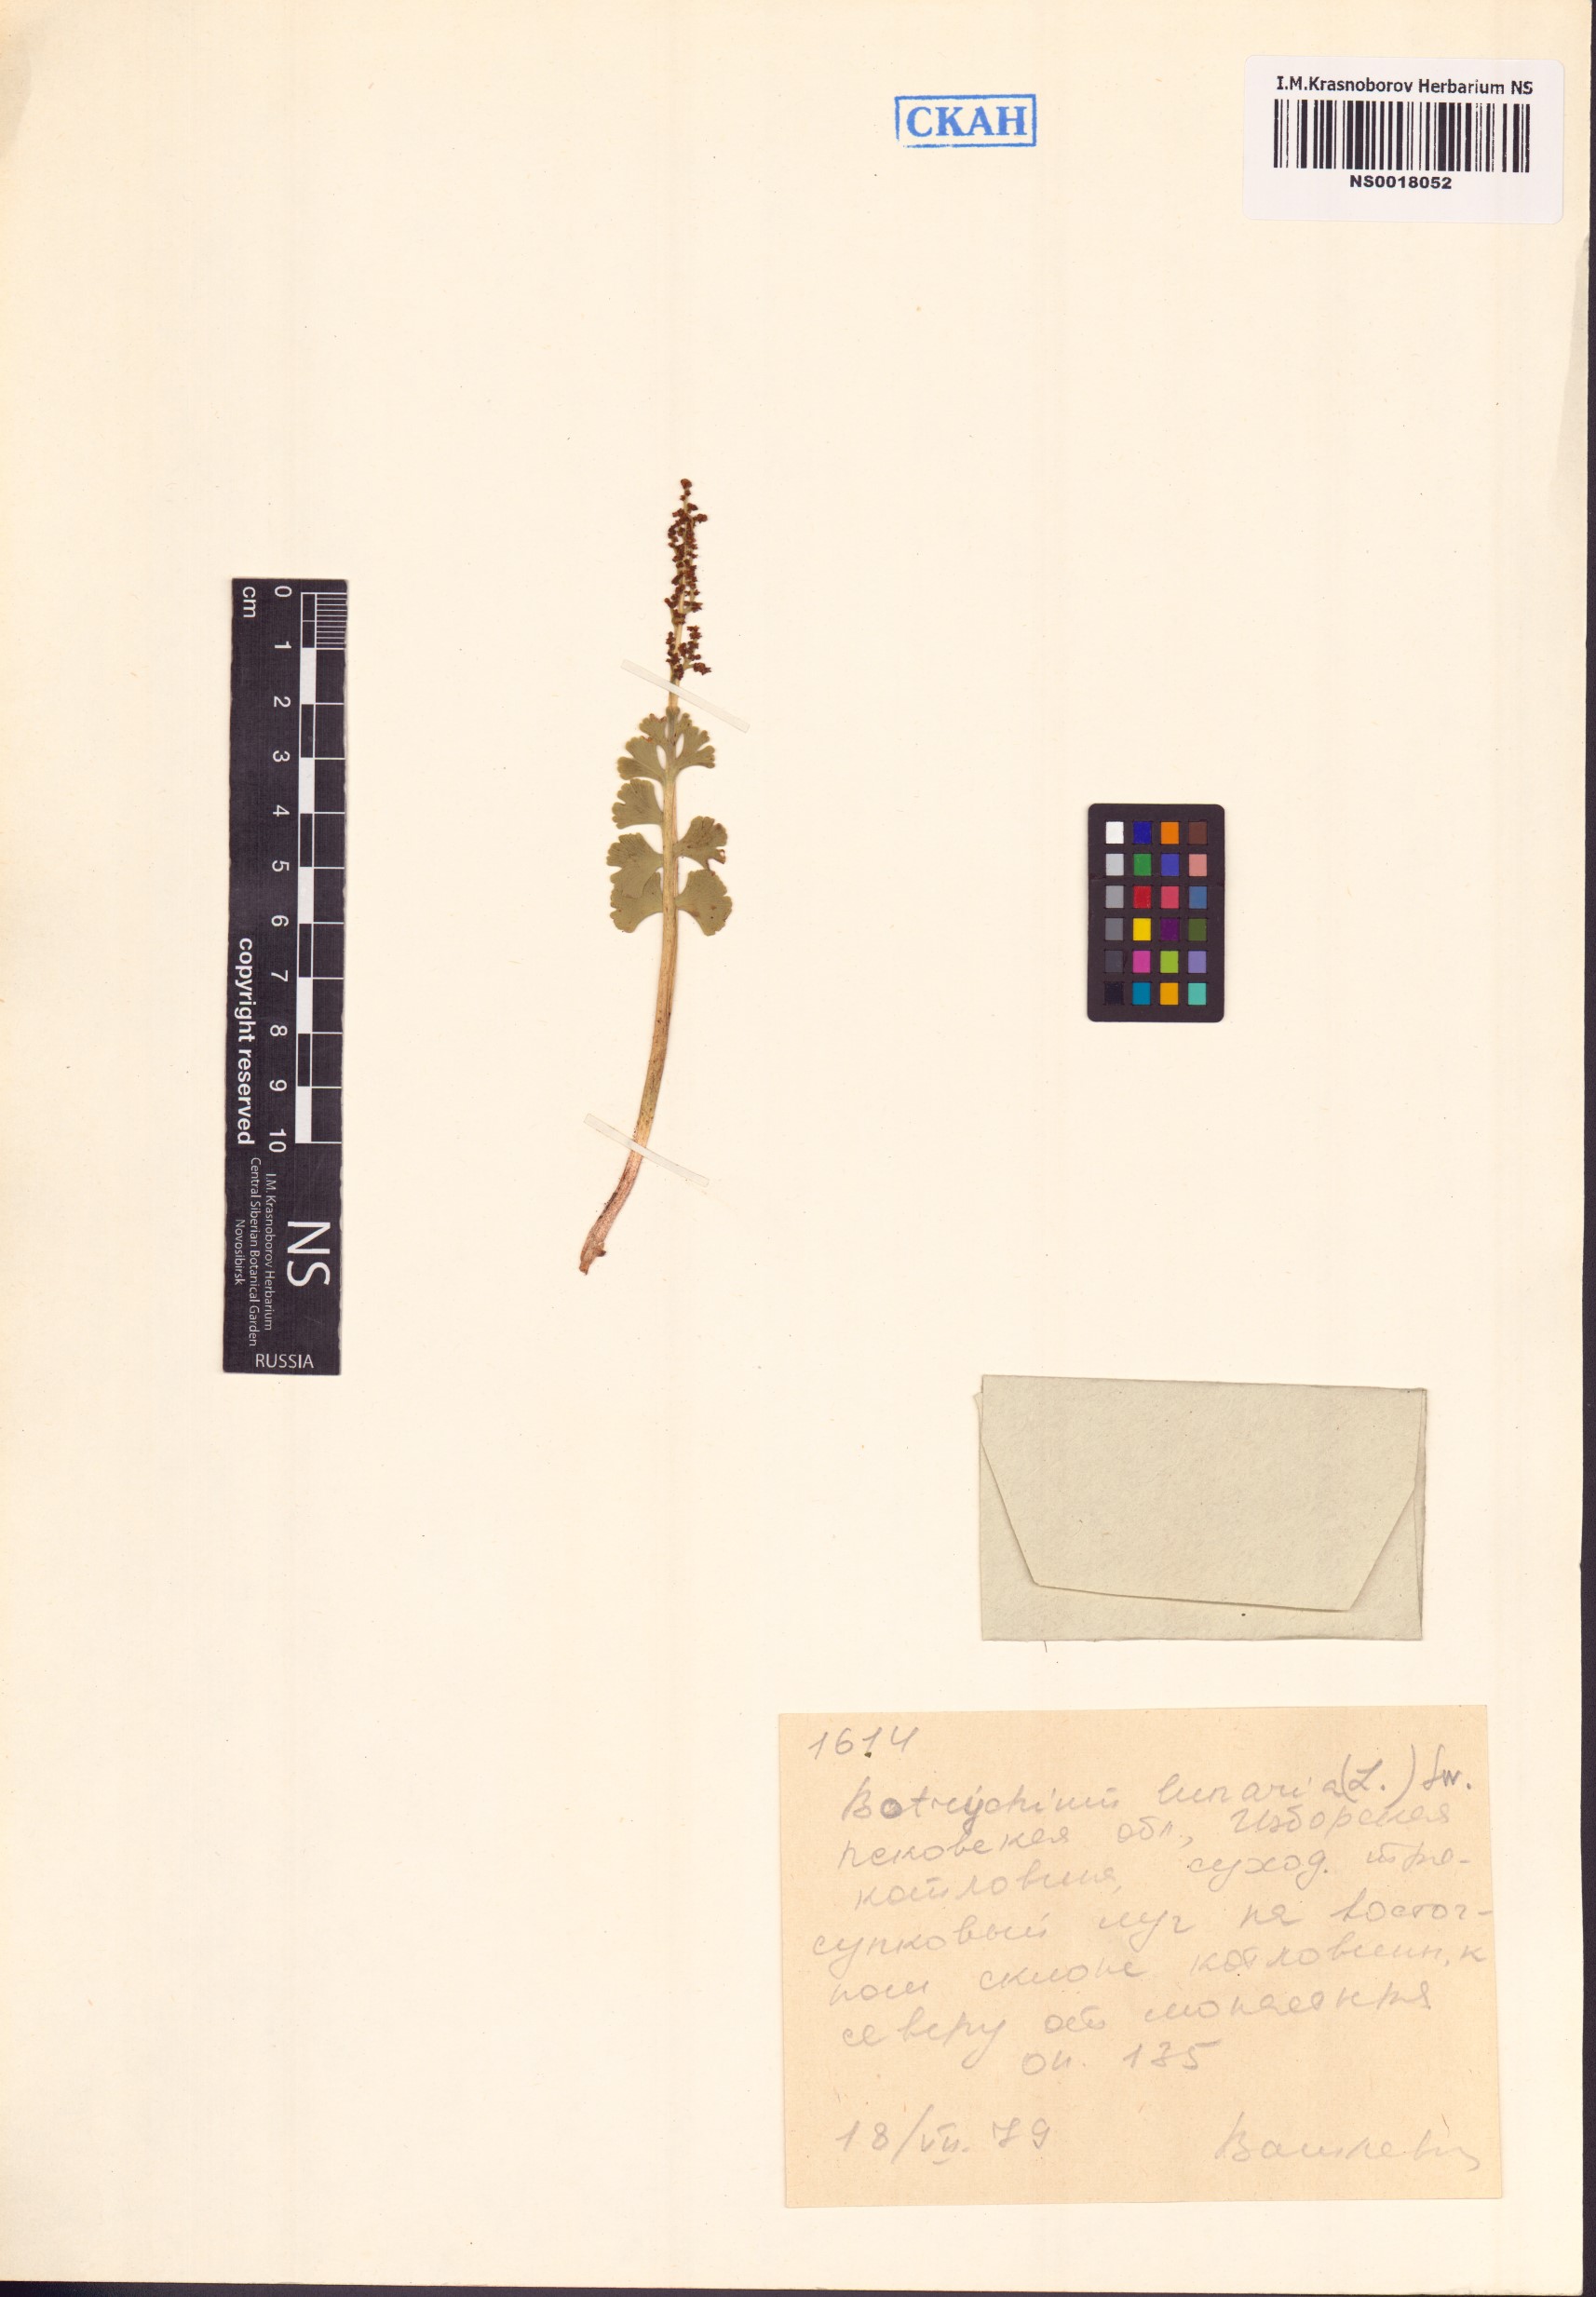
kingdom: Plantae
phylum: Tracheophyta
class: Polypodiopsida
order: Ophioglossales
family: Ophioglossaceae
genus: Botrychium
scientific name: Botrychium lunaria
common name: Moonwort
